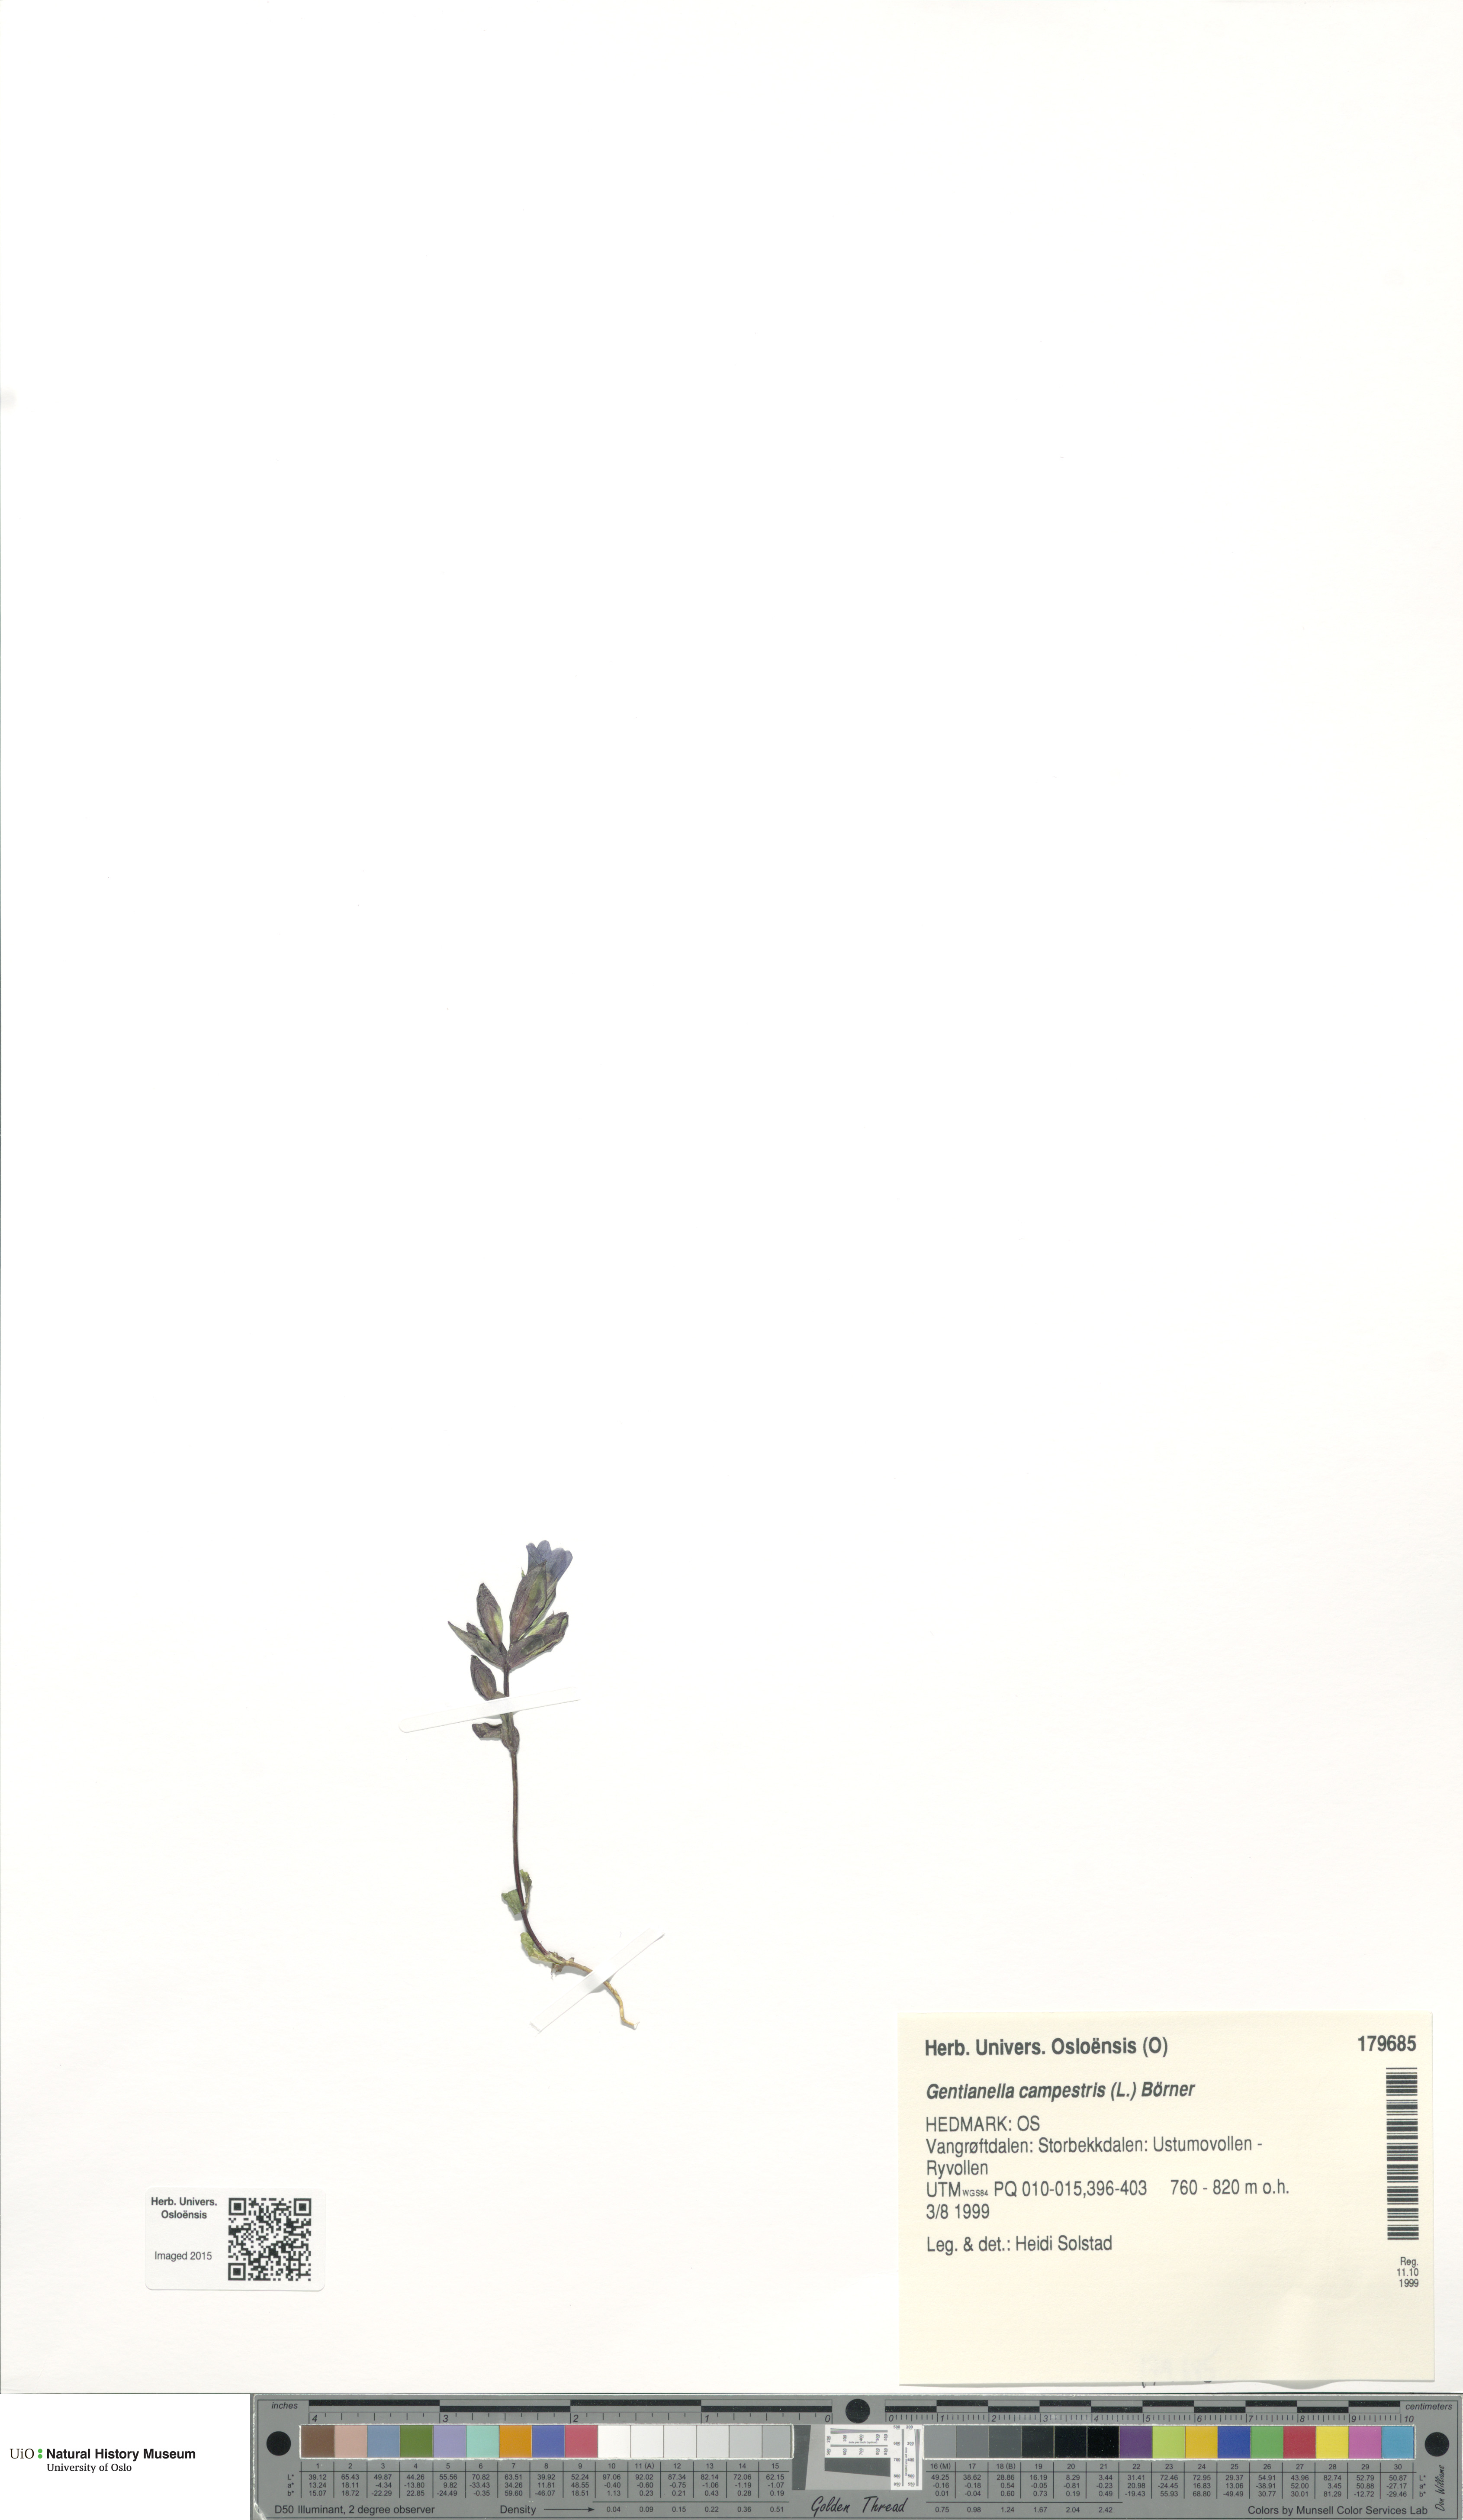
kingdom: Plantae
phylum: Tracheophyta
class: Magnoliopsida
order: Gentianales
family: Gentianaceae
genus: Gentianella
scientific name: Gentianella campestris
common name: Field gentian
